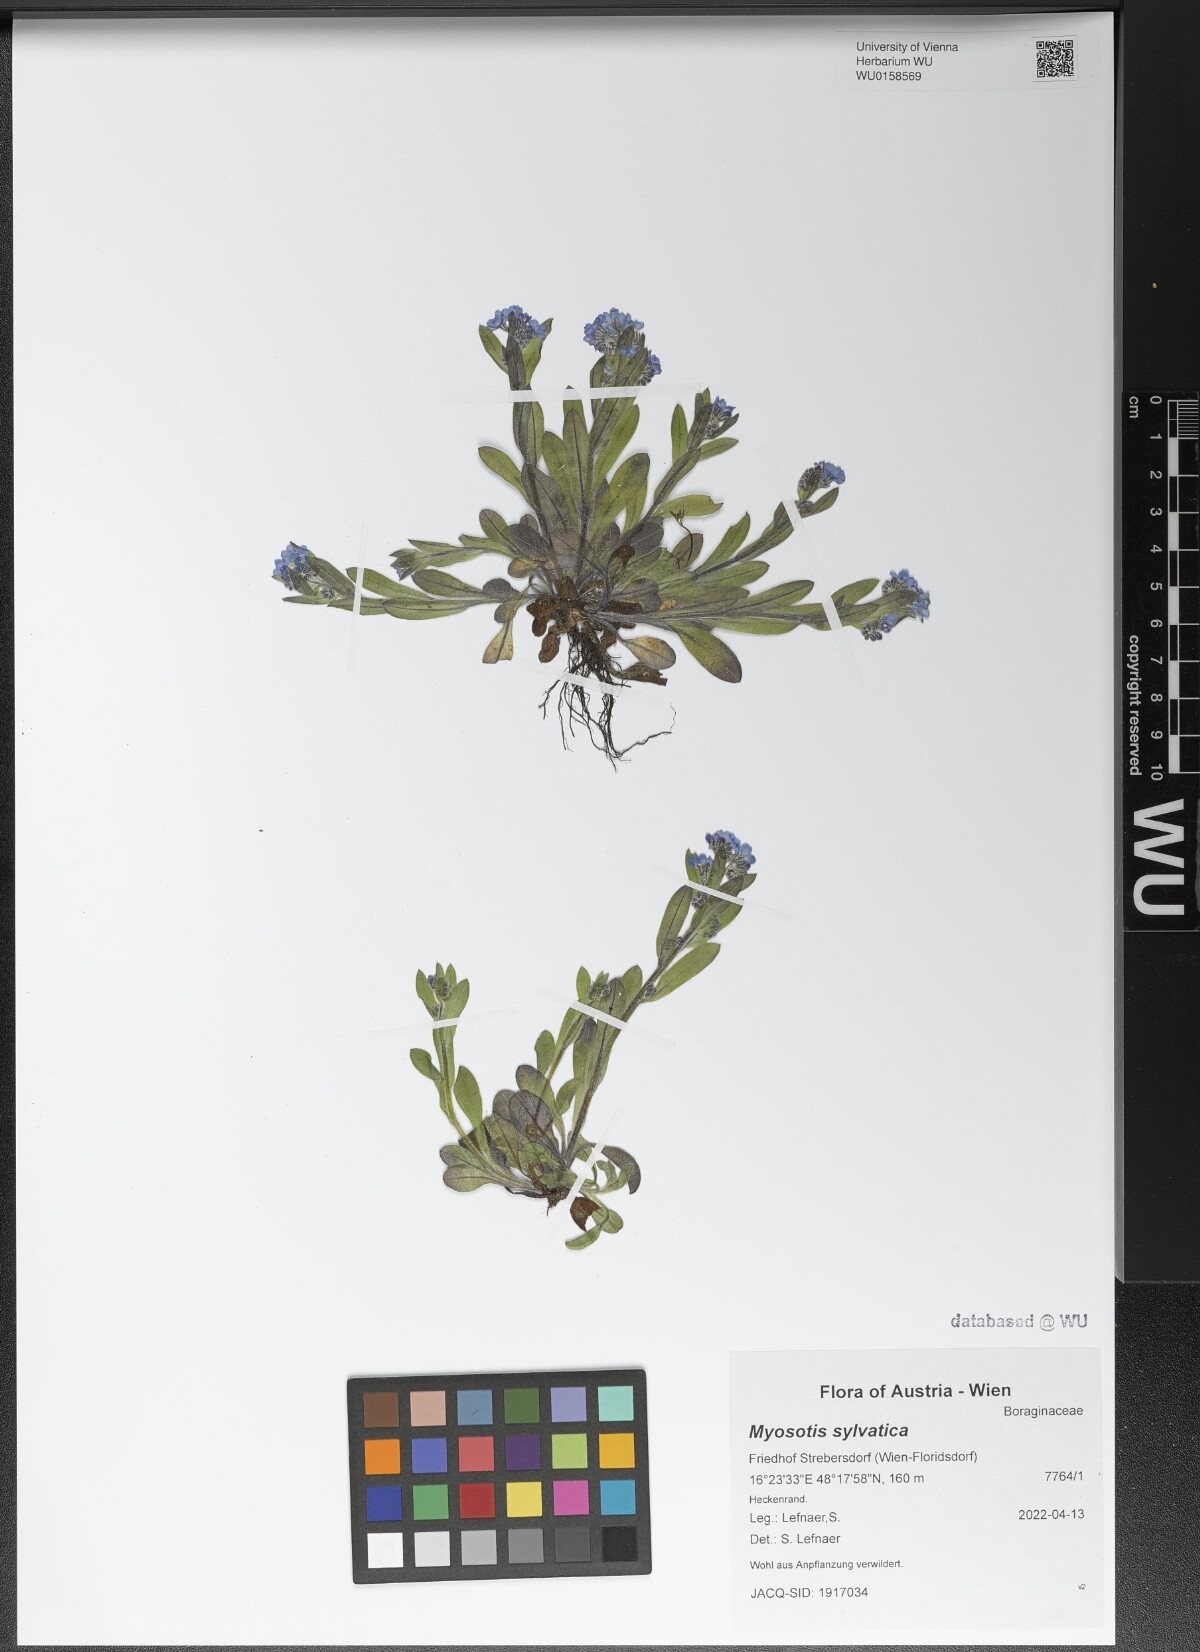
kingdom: Plantae
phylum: Tracheophyta
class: Magnoliopsida
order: Boraginales
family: Boraginaceae
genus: Myosotis
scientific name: Myosotis sylvatica
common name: Wood forget-me-not
